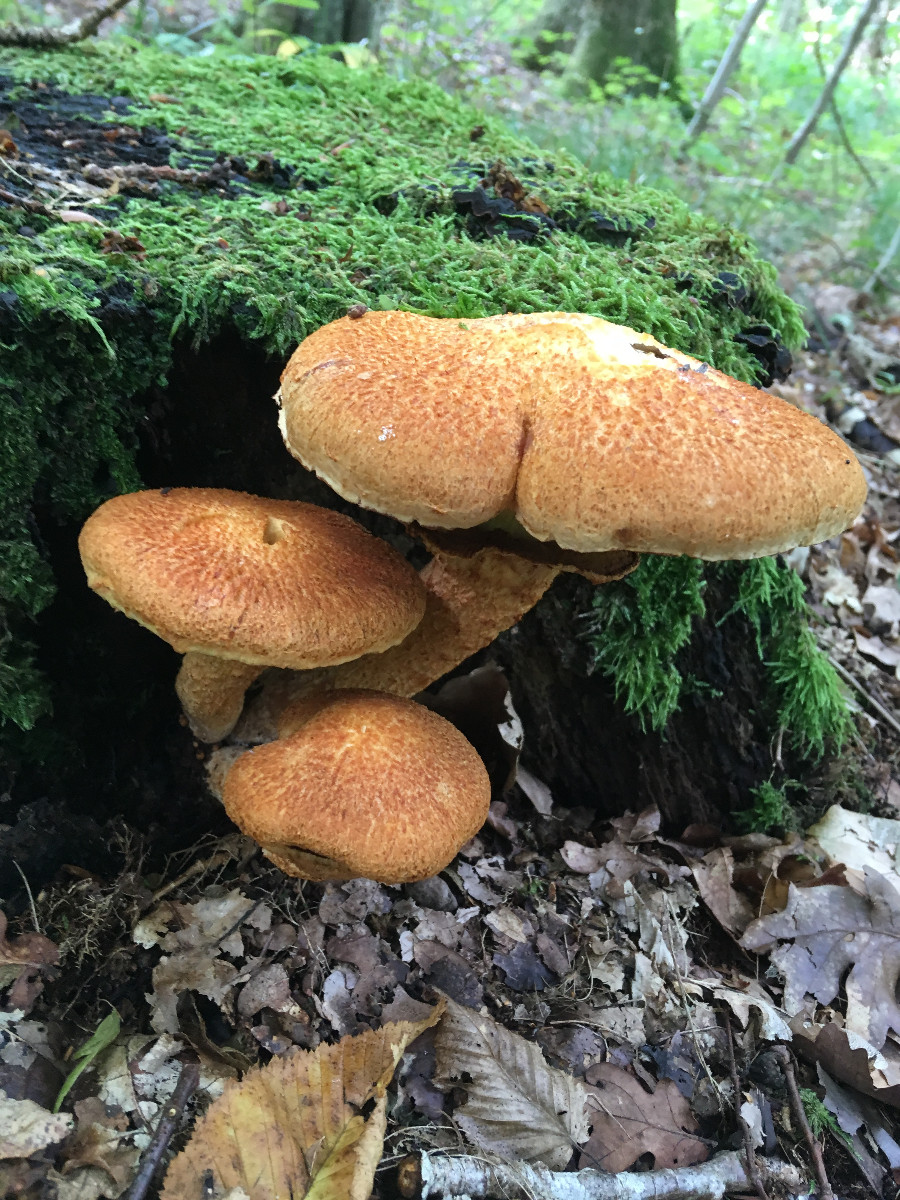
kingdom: Fungi
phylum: Basidiomycota
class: Agaricomycetes
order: Agaricales
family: Hymenogastraceae
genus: Gymnopilus
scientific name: Gymnopilus spectabilis
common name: fibret flammehat
